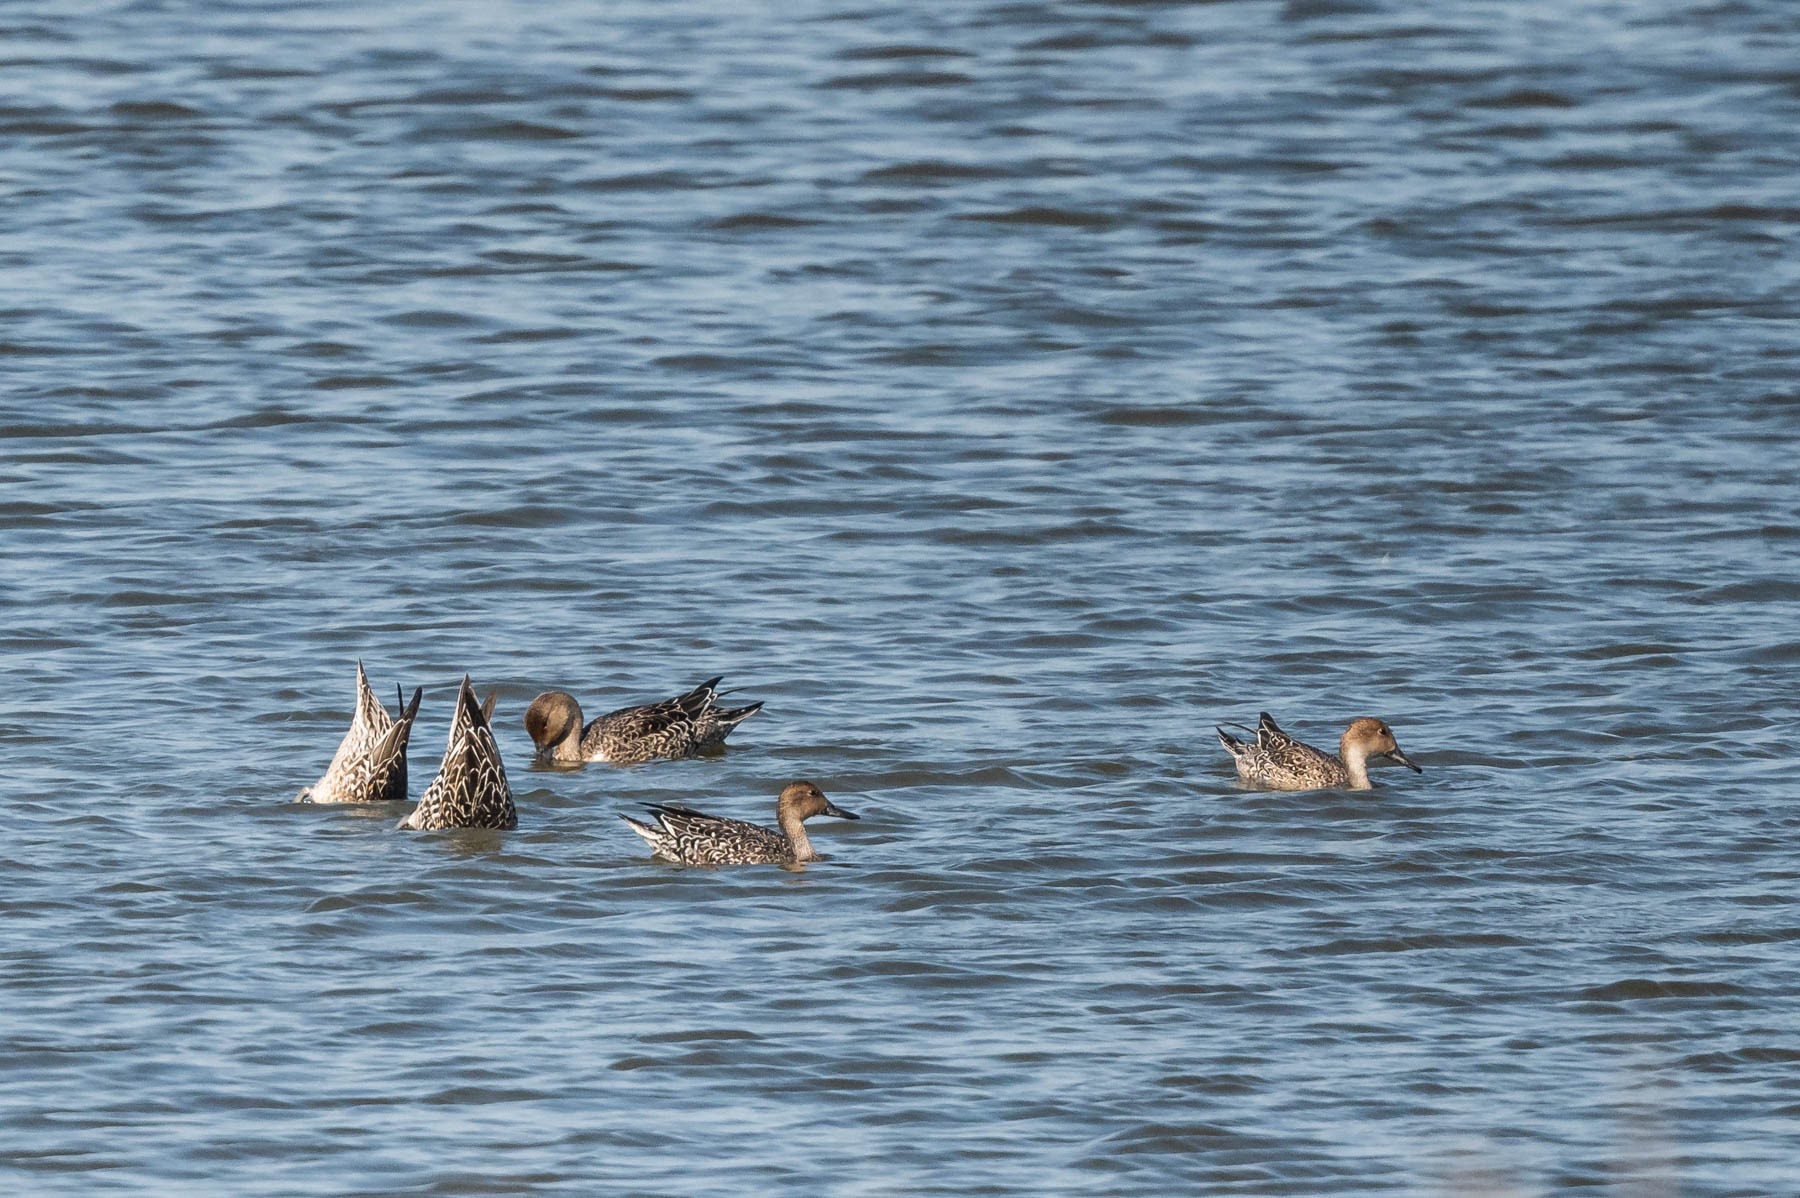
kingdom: Animalia
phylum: Chordata
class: Aves
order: Anseriformes
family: Anatidae
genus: Anas
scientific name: Anas acuta
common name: Spidsand
